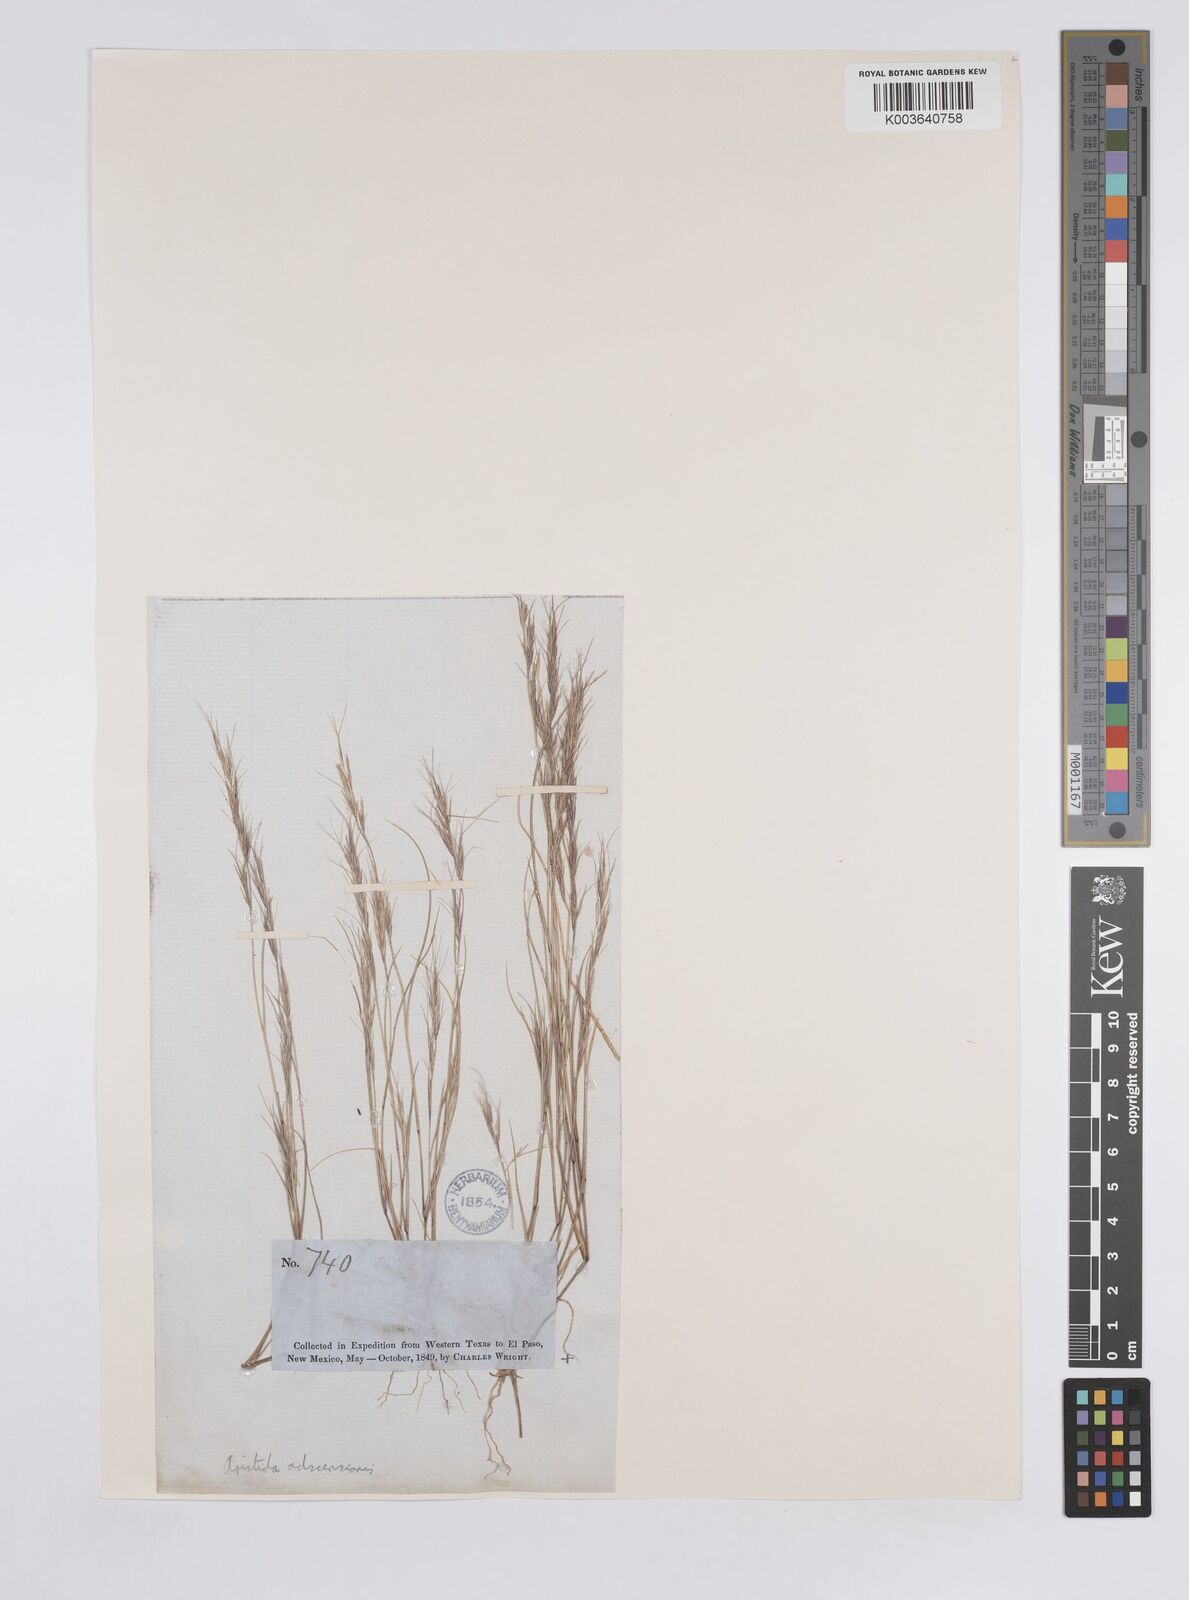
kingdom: Plantae
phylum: Tracheophyta
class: Liliopsida
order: Poales
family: Poaceae
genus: Aristida
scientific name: Aristida adscensionis
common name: Sixweeks threeawn
